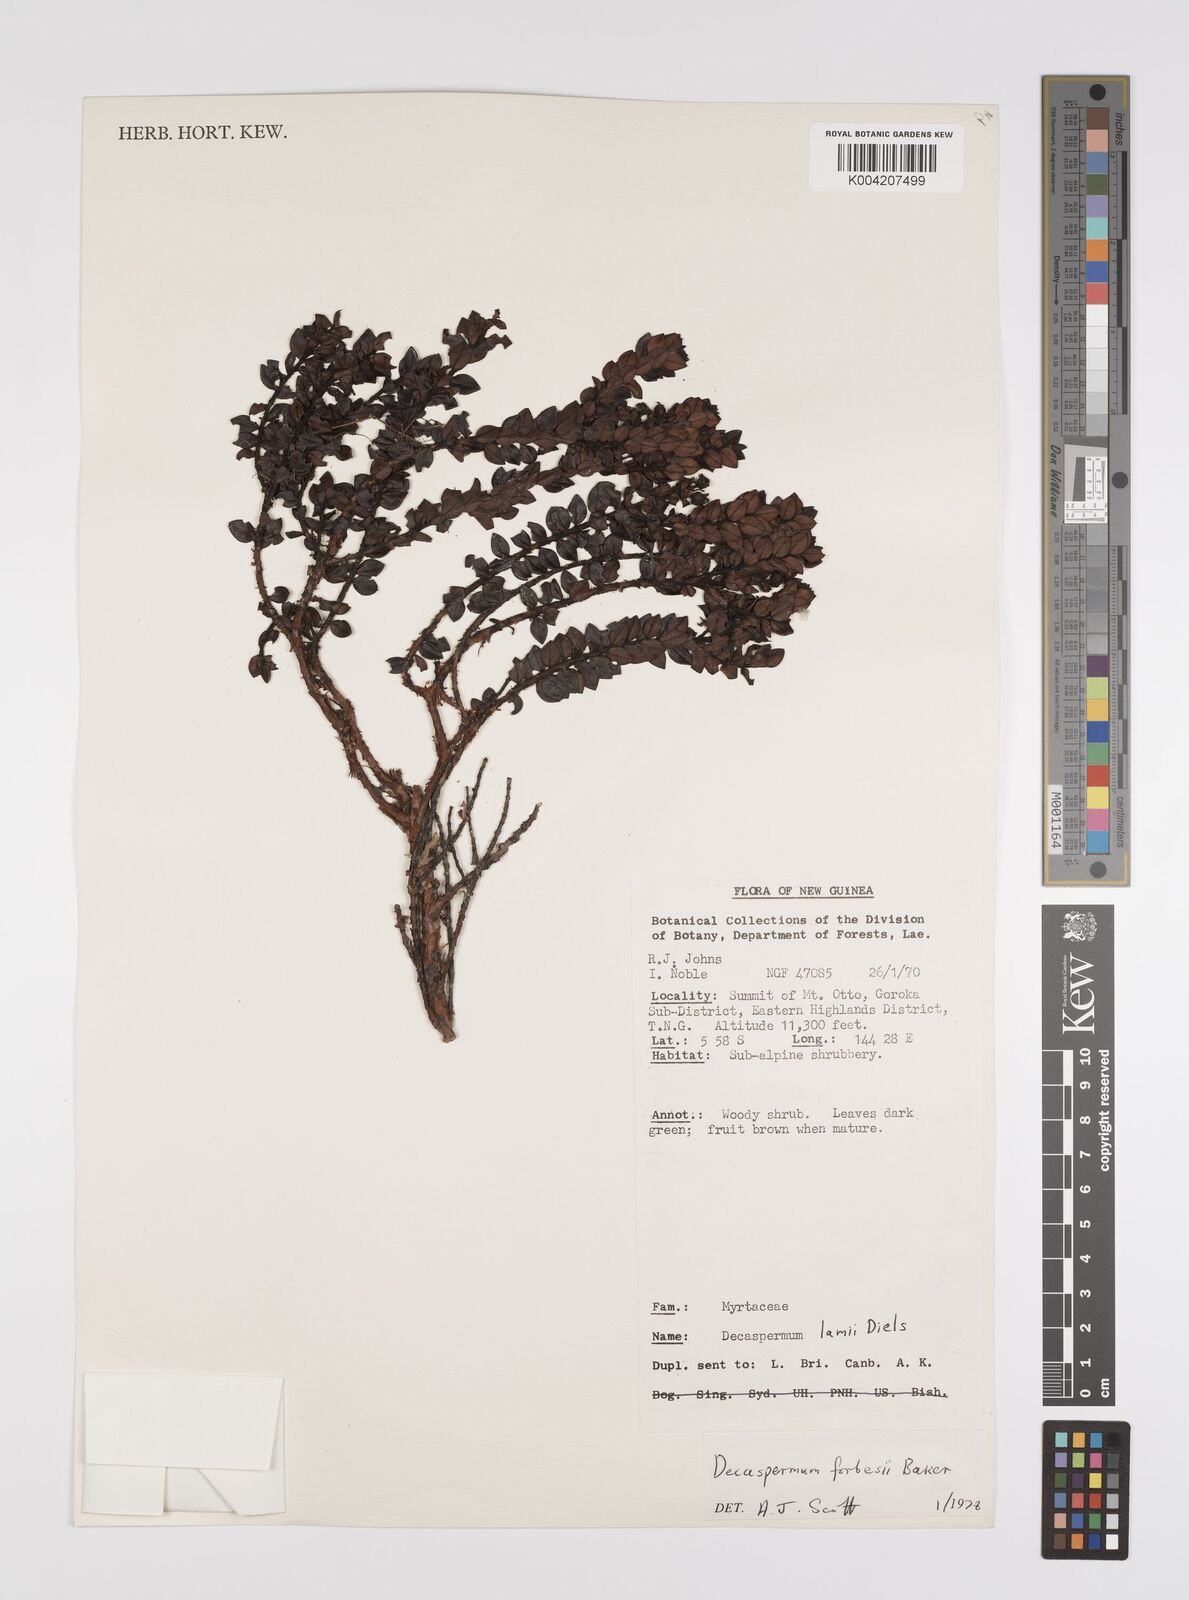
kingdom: Plantae
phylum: Tracheophyta
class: Magnoliopsida
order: Myrtales
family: Myrtaceae
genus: Decaspermum
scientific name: Decaspermum alpinum
